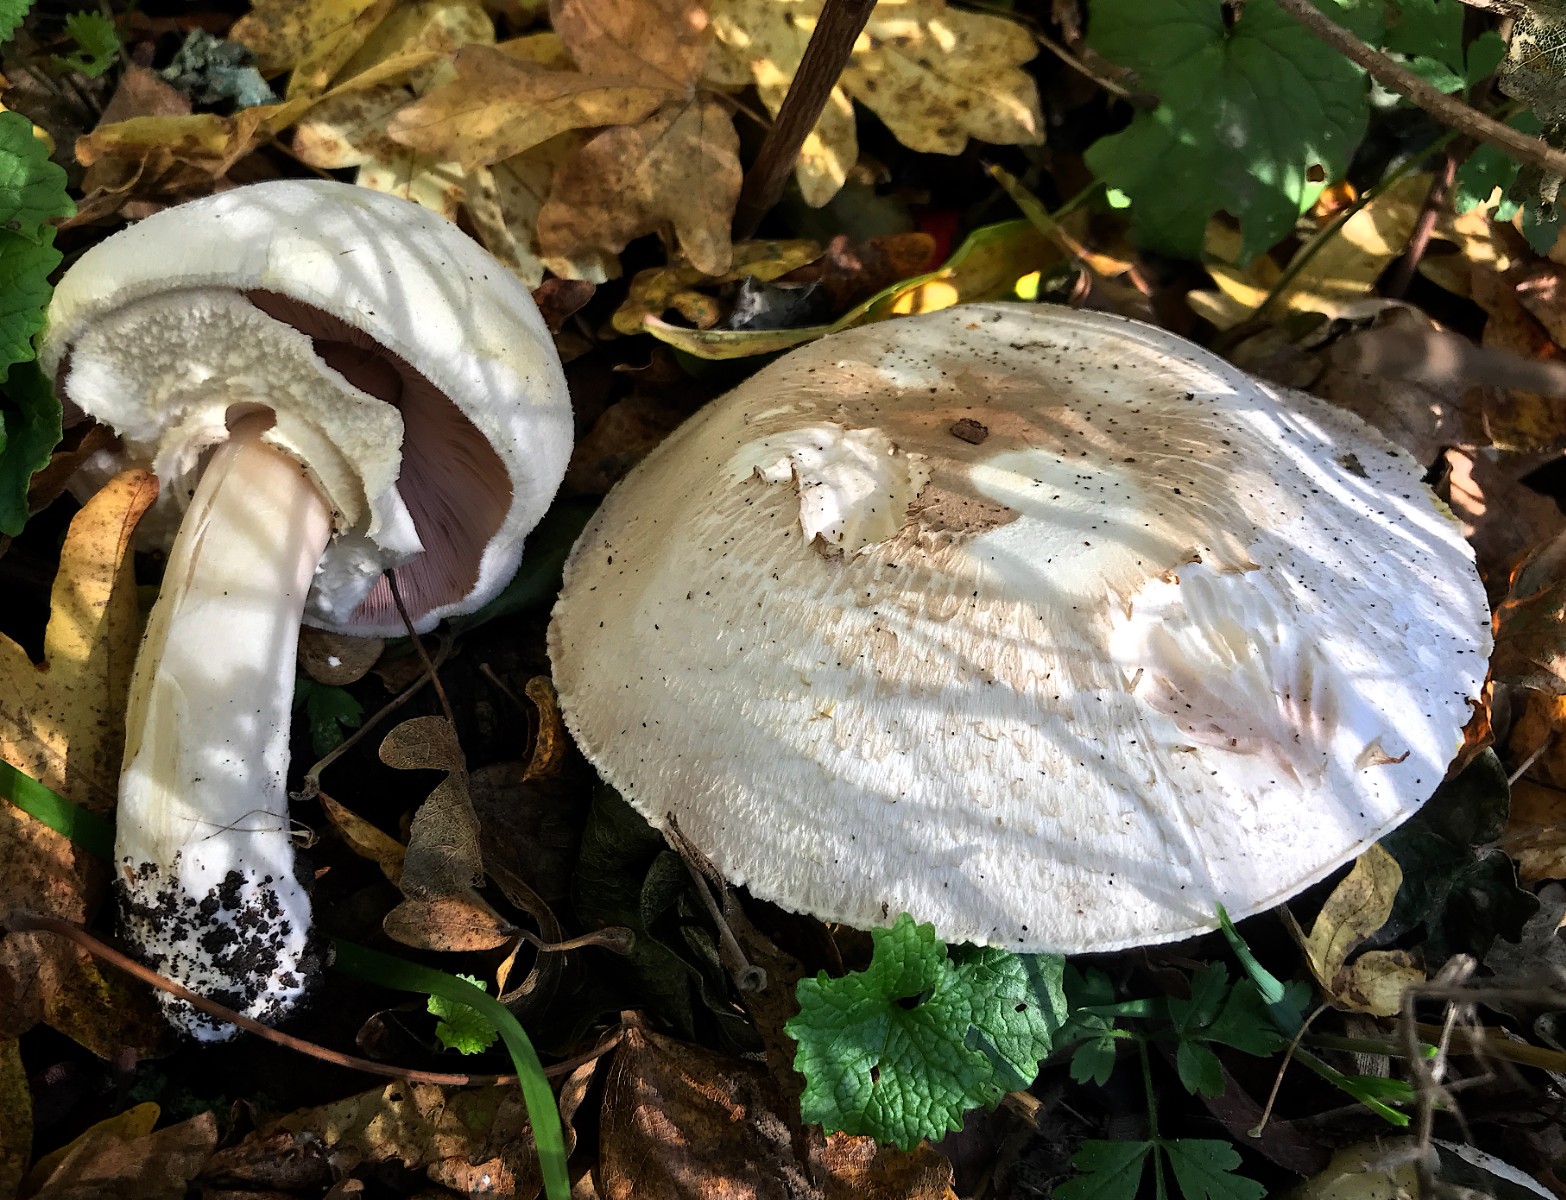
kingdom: Fungi
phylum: Basidiomycota
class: Agaricomycetes
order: Agaricales
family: Agaricaceae
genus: Agaricus
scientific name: Agaricus arvensis
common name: ager-champignon
